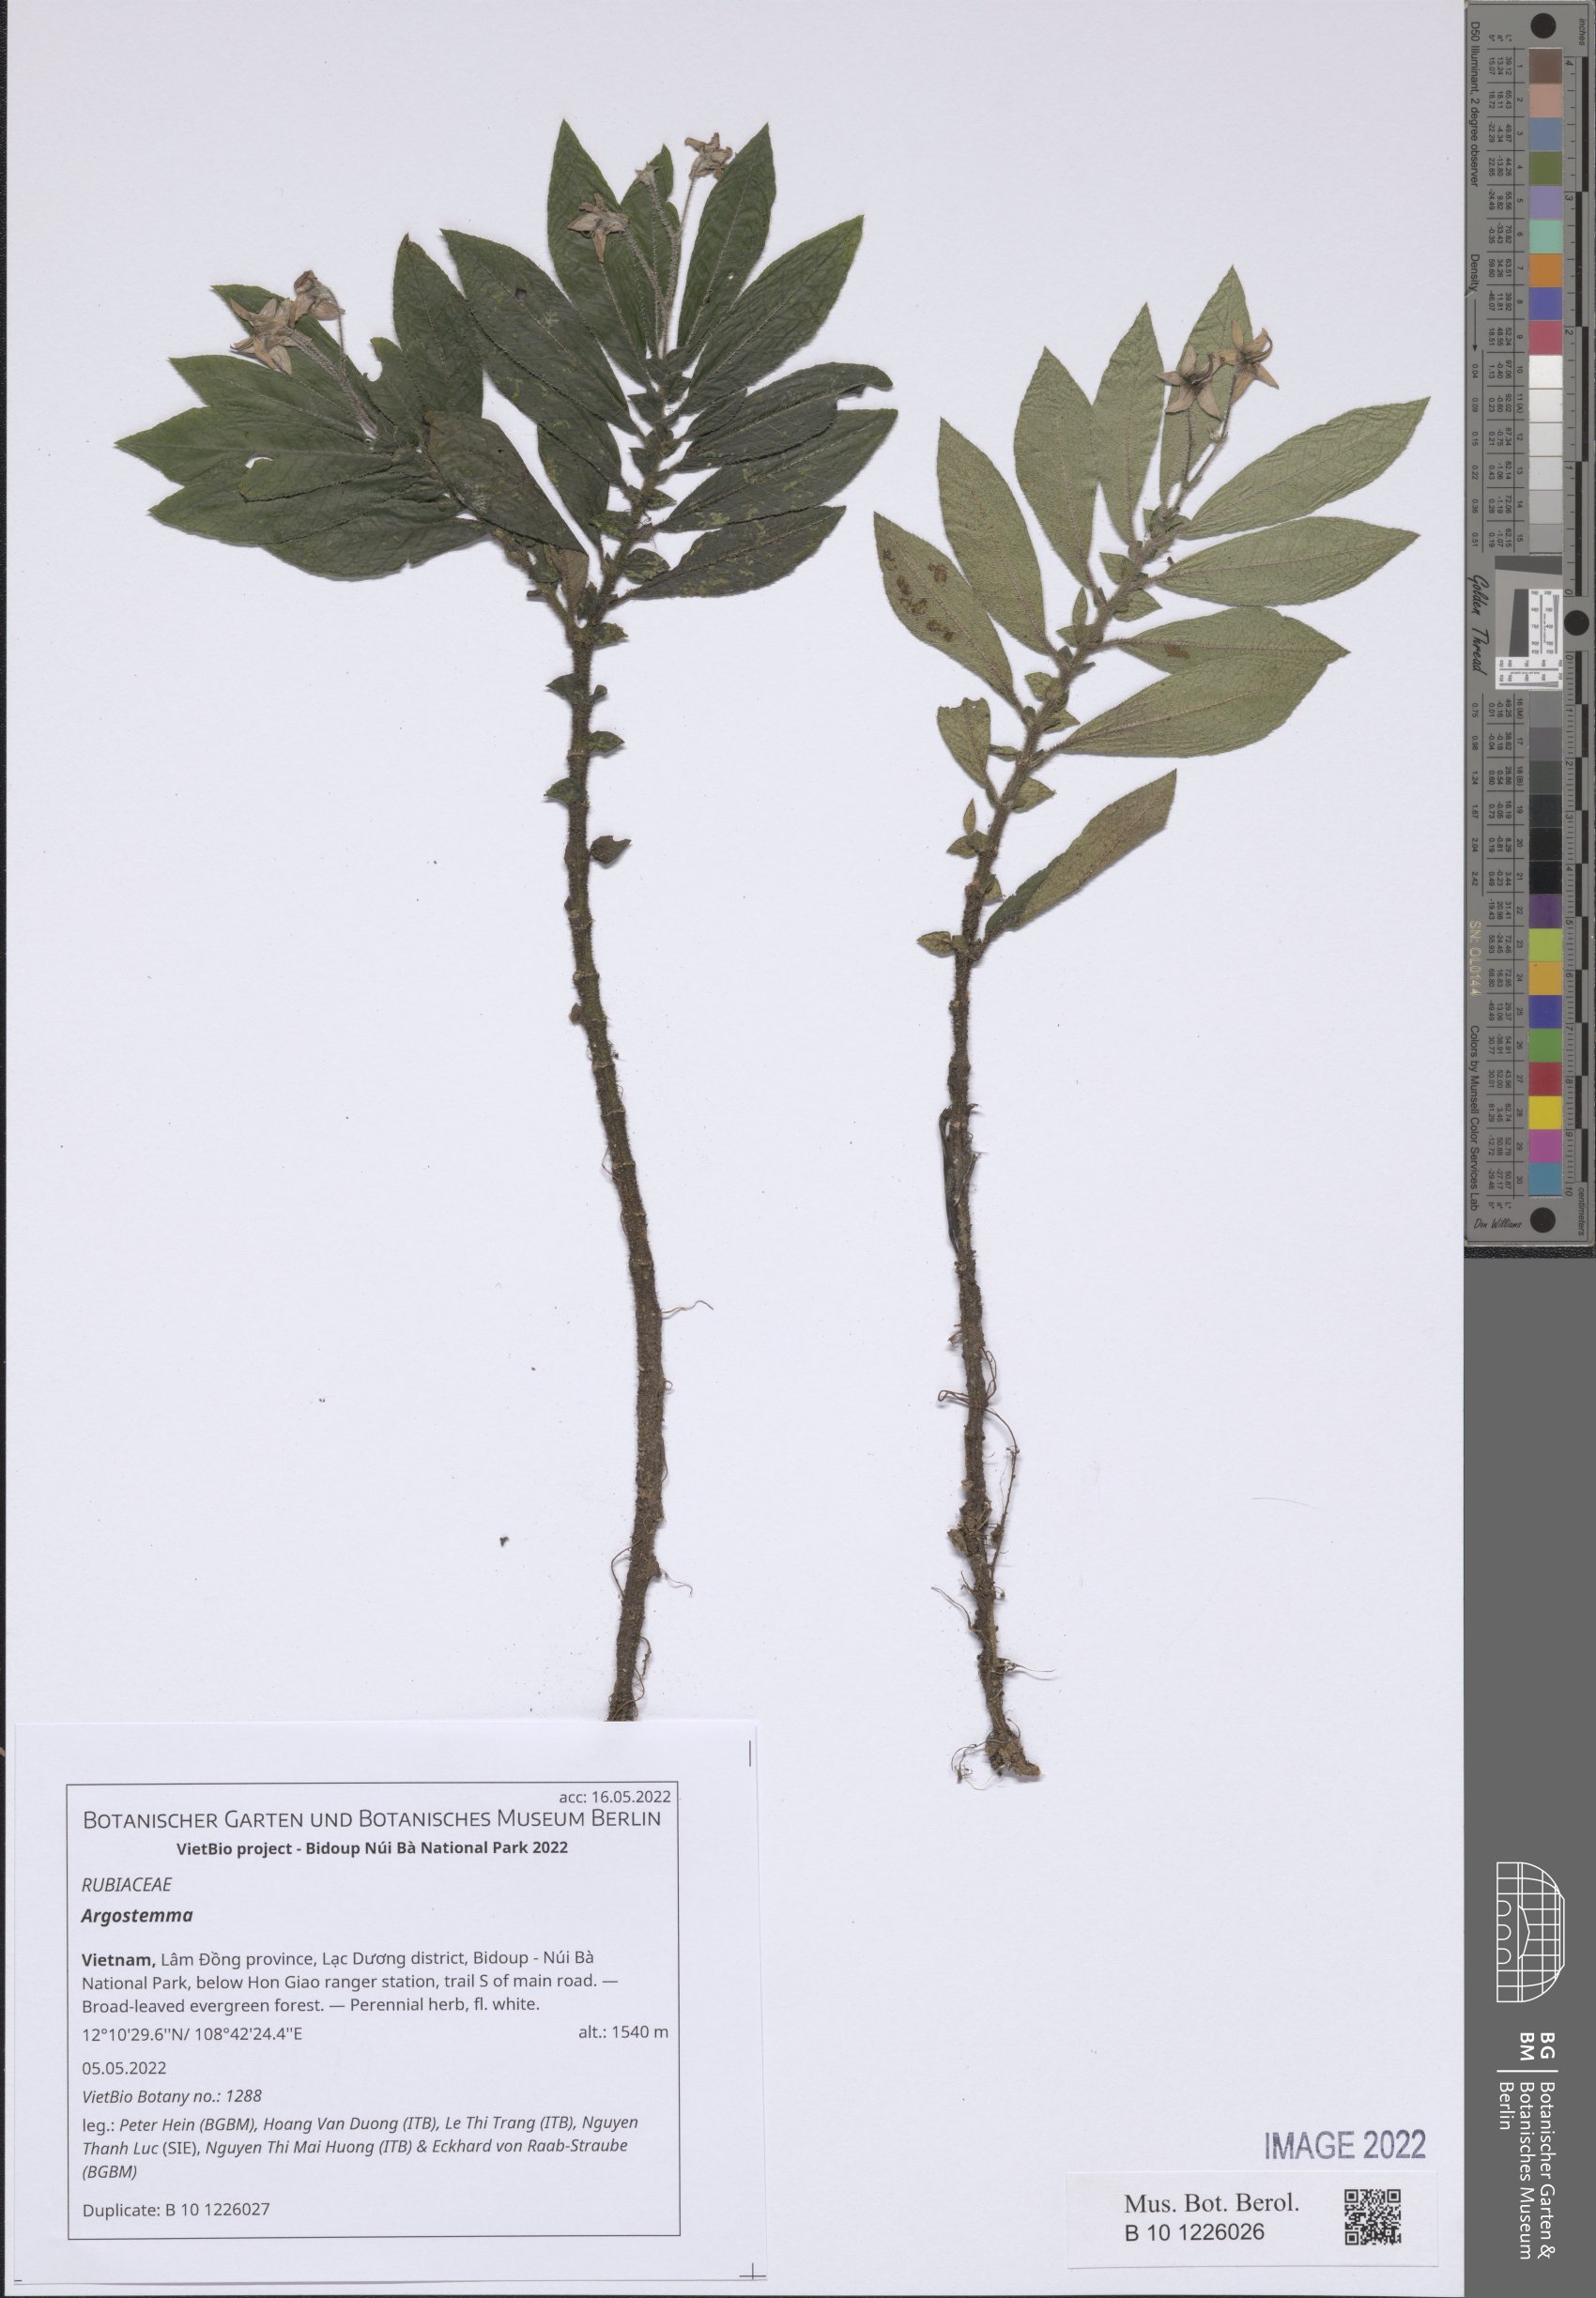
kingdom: Plantae
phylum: Tracheophyta
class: Magnoliopsida
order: Gentianales
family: Rubiaceae
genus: Argostemma
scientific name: Argostemma
